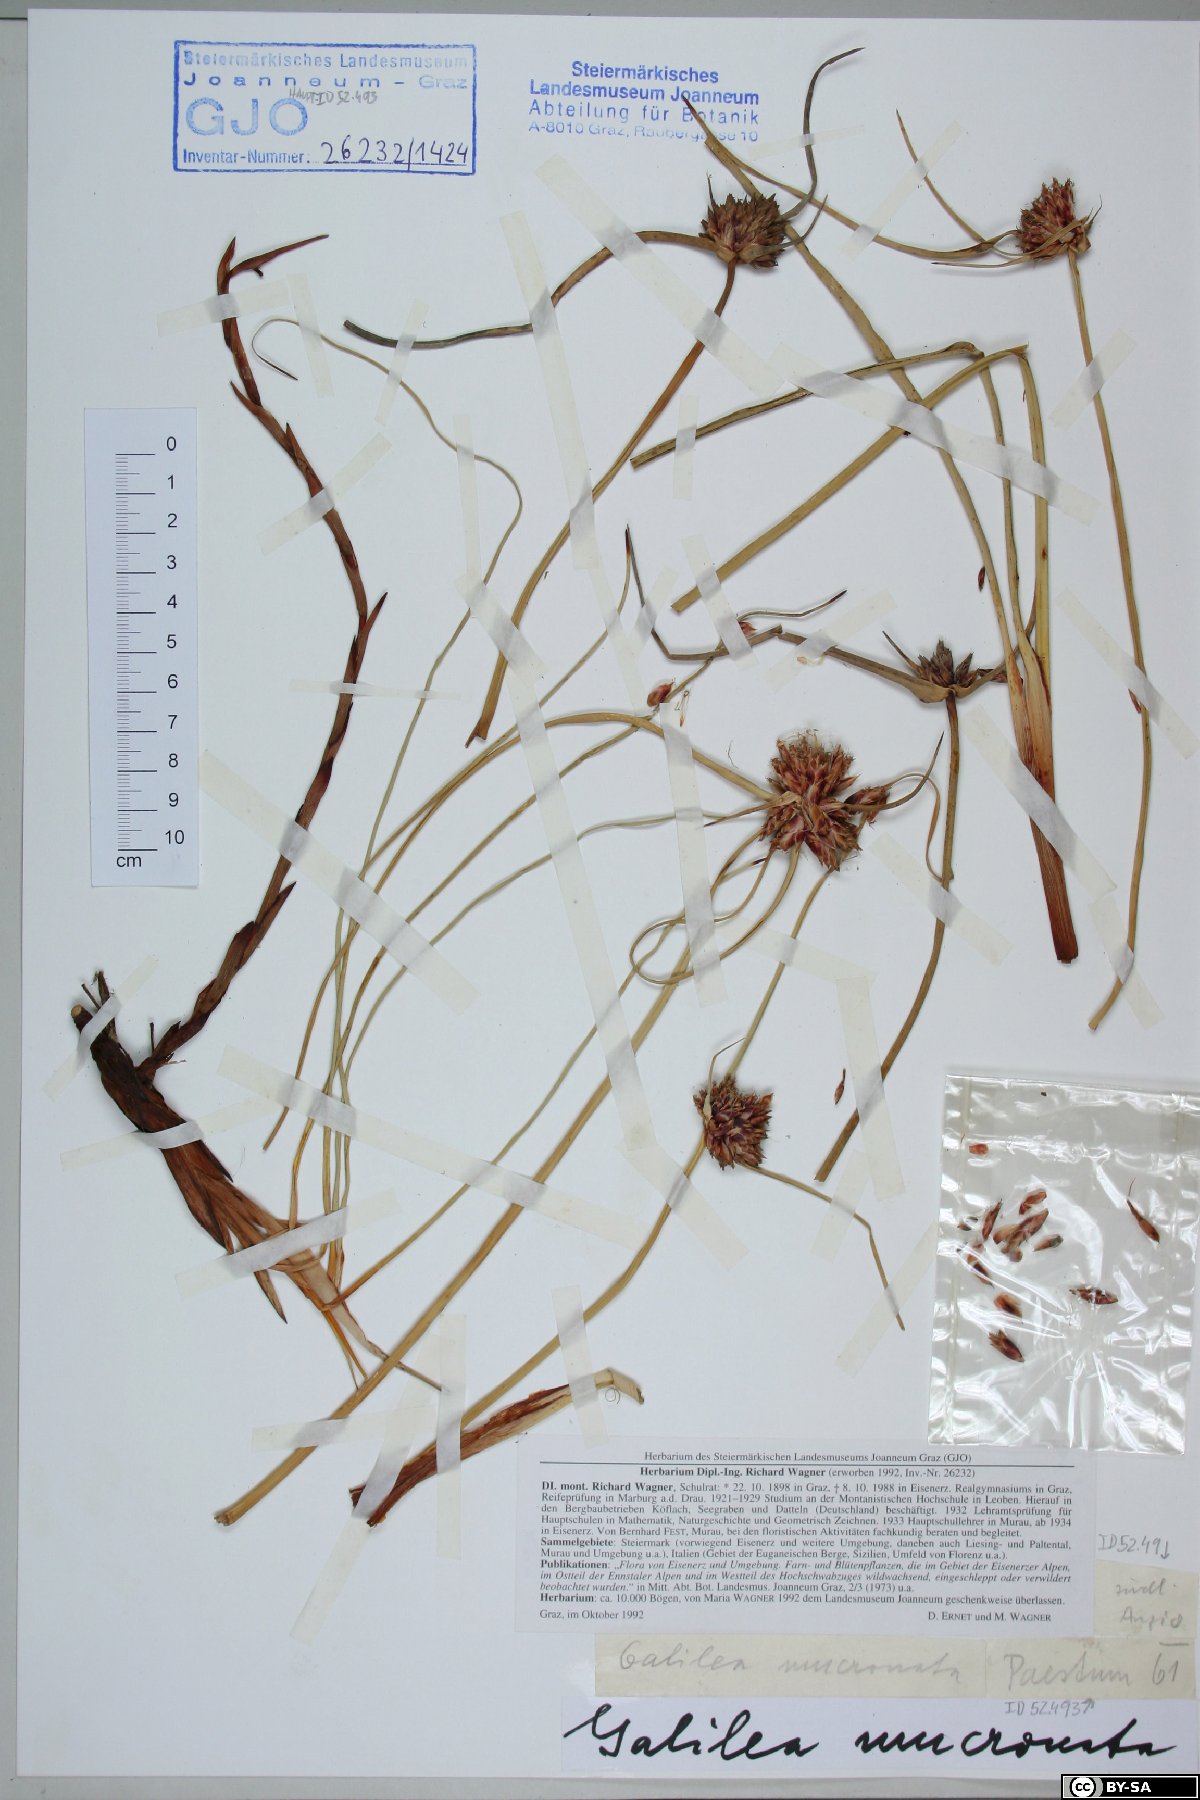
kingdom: Plantae
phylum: Tracheophyta
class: Liliopsida
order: Poales
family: Cyperaceae
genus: Cyperus
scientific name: Cyperus capitatus
